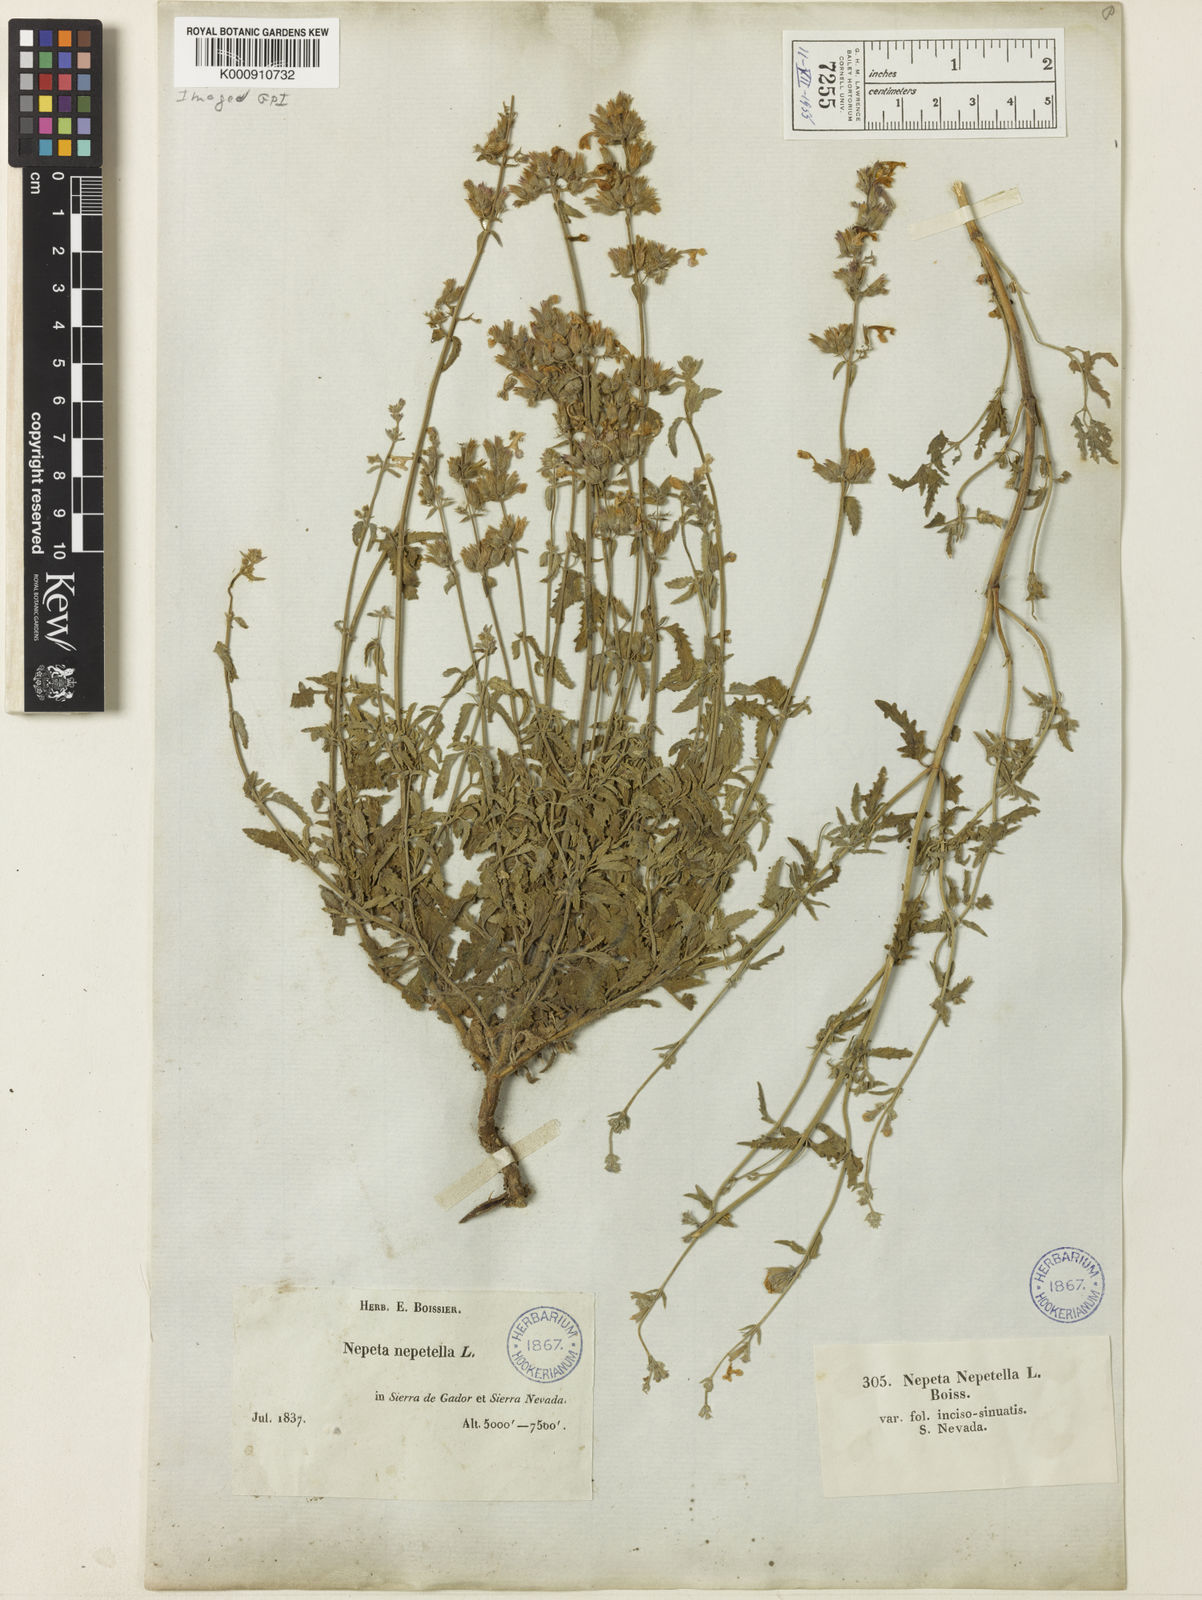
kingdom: Plantae
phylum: Tracheophyta
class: Magnoliopsida
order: Lamiales
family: Lamiaceae
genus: Nepeta
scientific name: Nepeta boissieri
